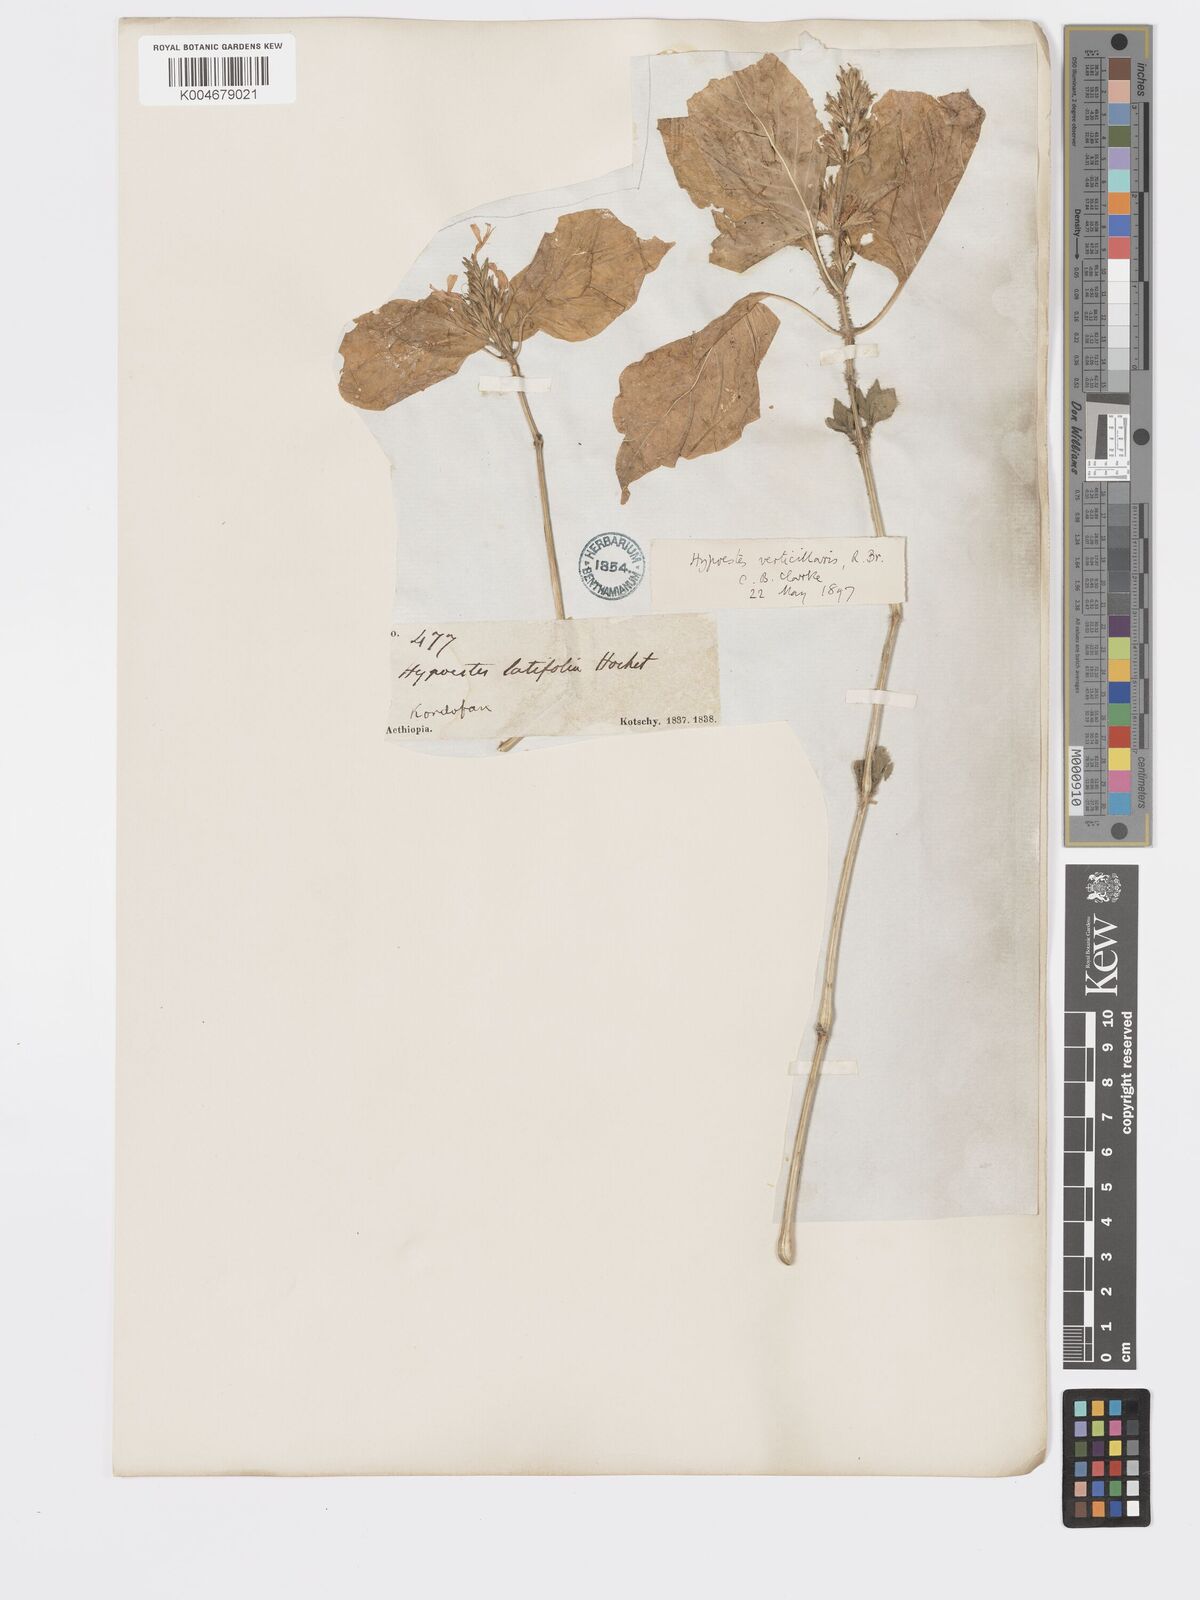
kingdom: Plantae
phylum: Tracheophyta
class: Magnoliopsida
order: Lamiales
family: Acanthaceae
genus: Hypoestes
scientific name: Hypoestes forskaolii
